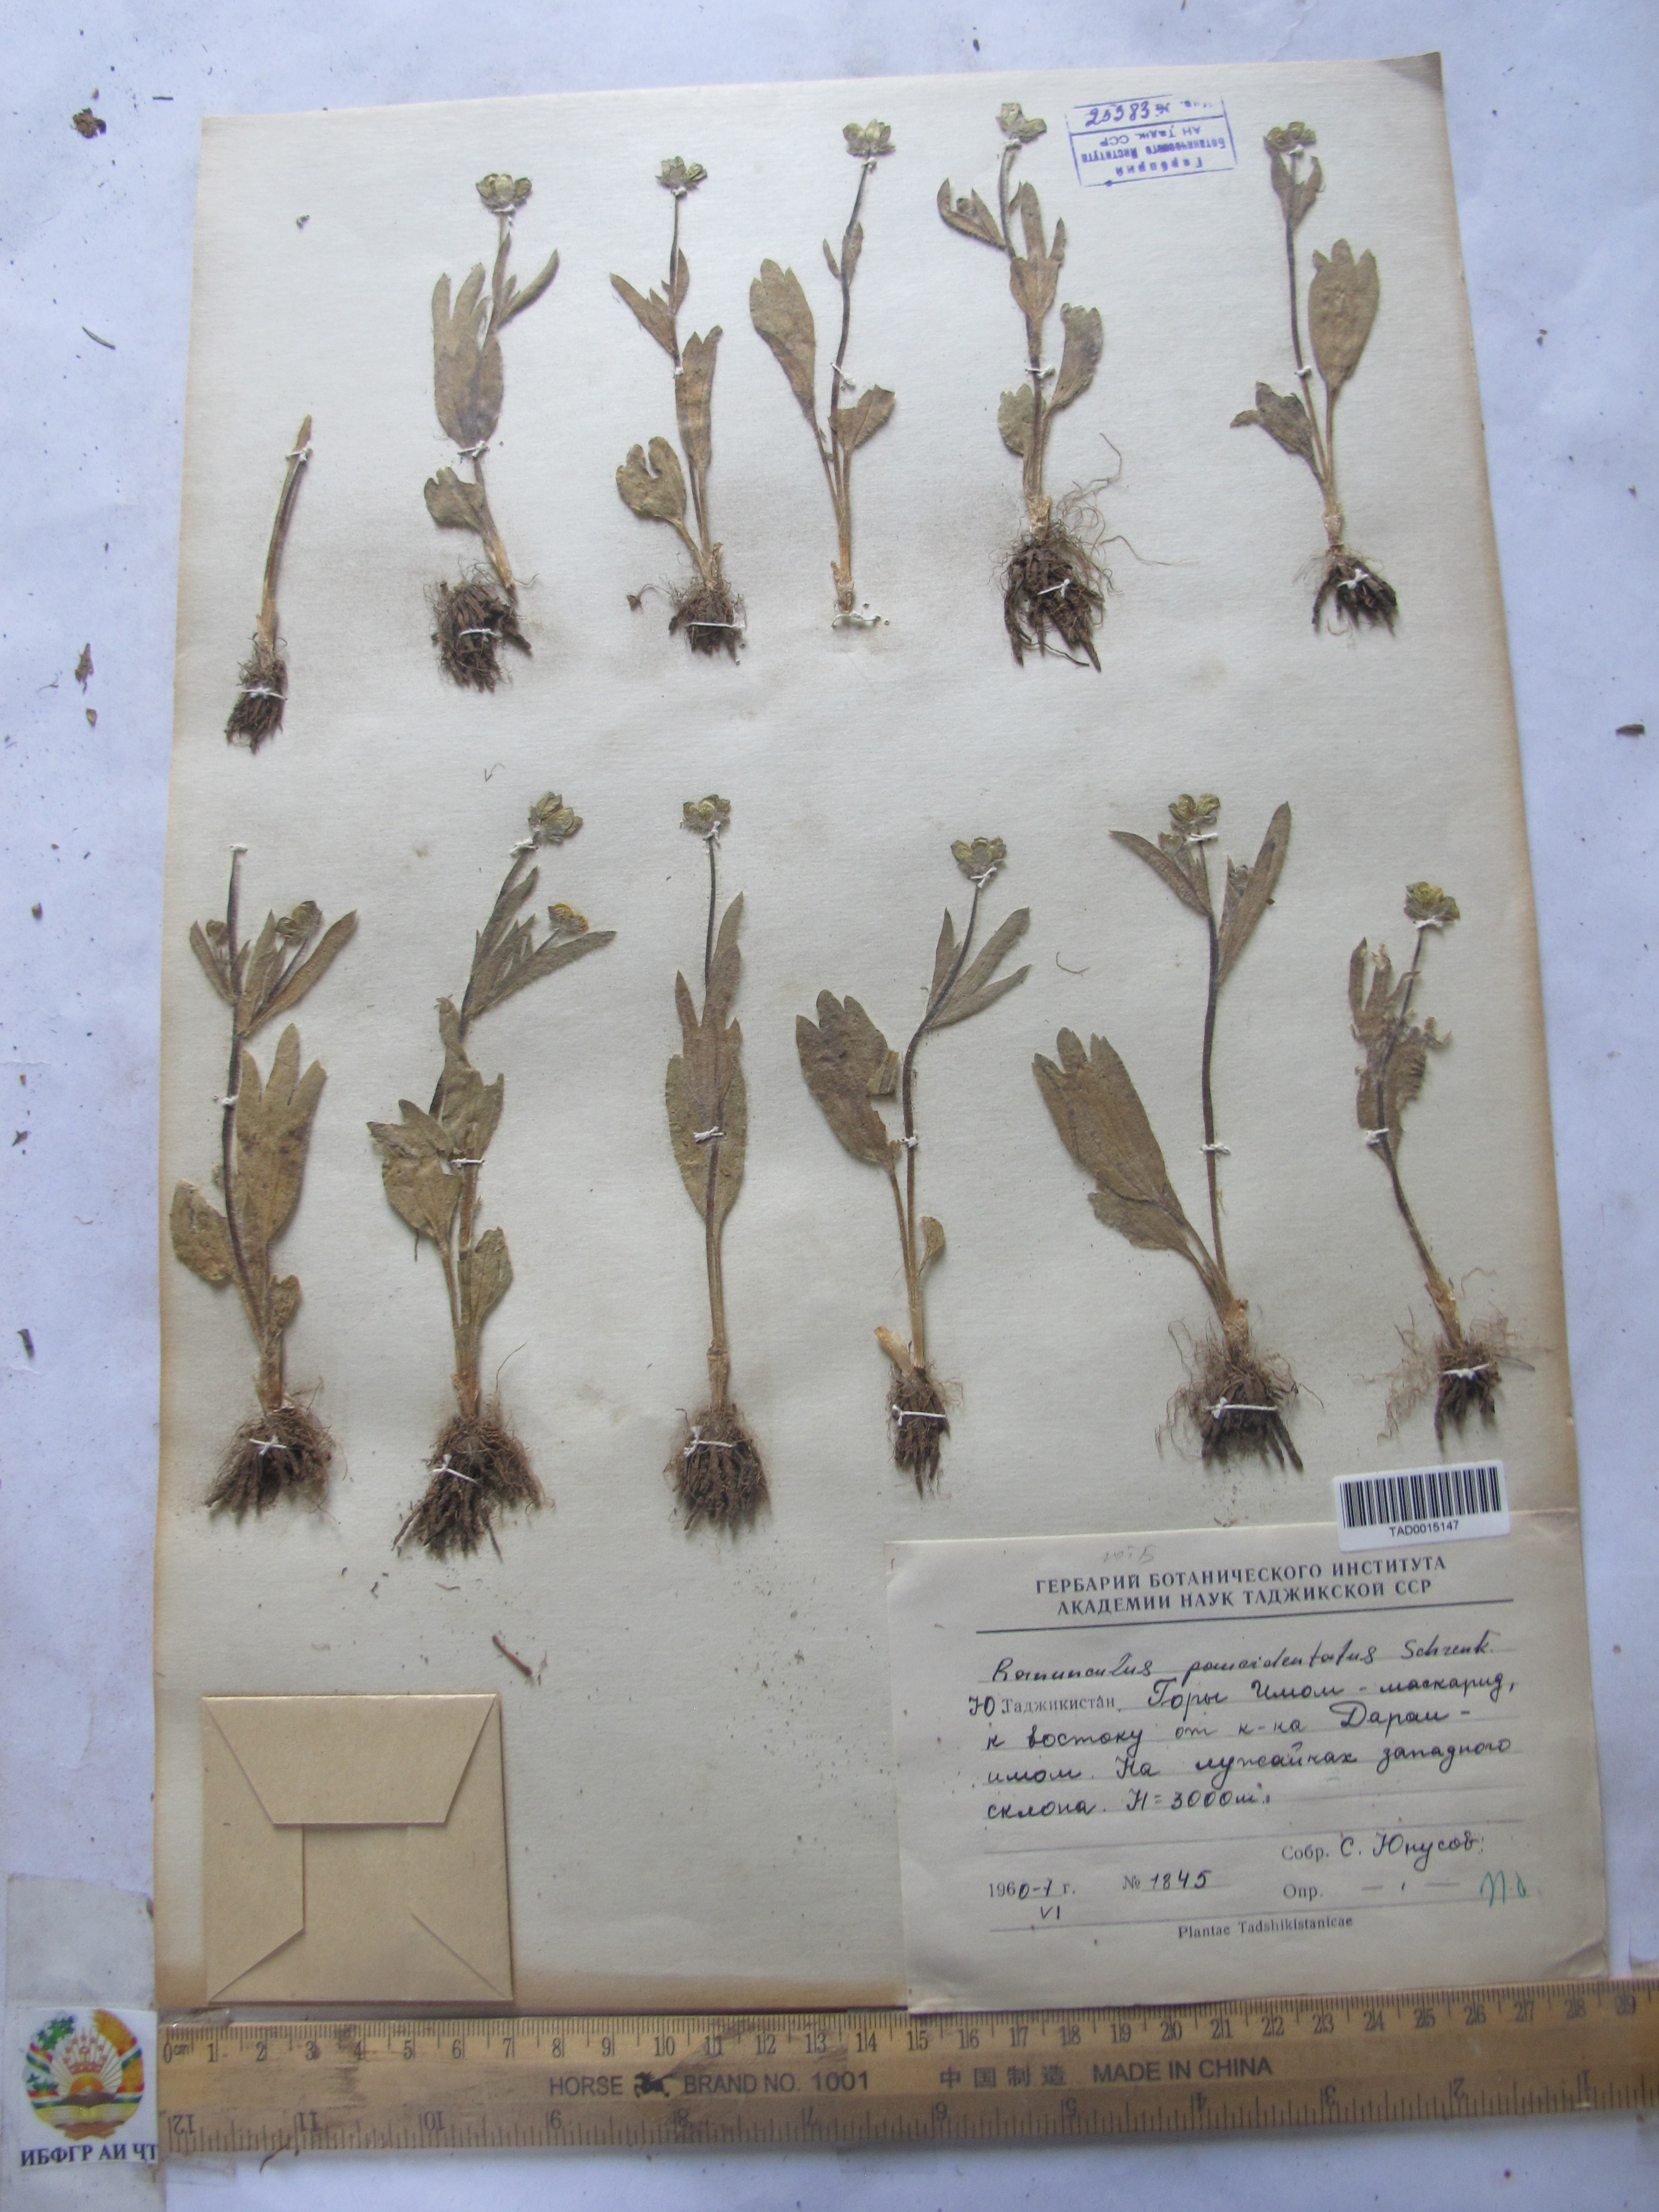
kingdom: Plantae
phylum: Tracheophyta
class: Magnoliopsida
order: Ranunculales
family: Ranunculaceae
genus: Ranunculus
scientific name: Ranunculus paucidentatus
